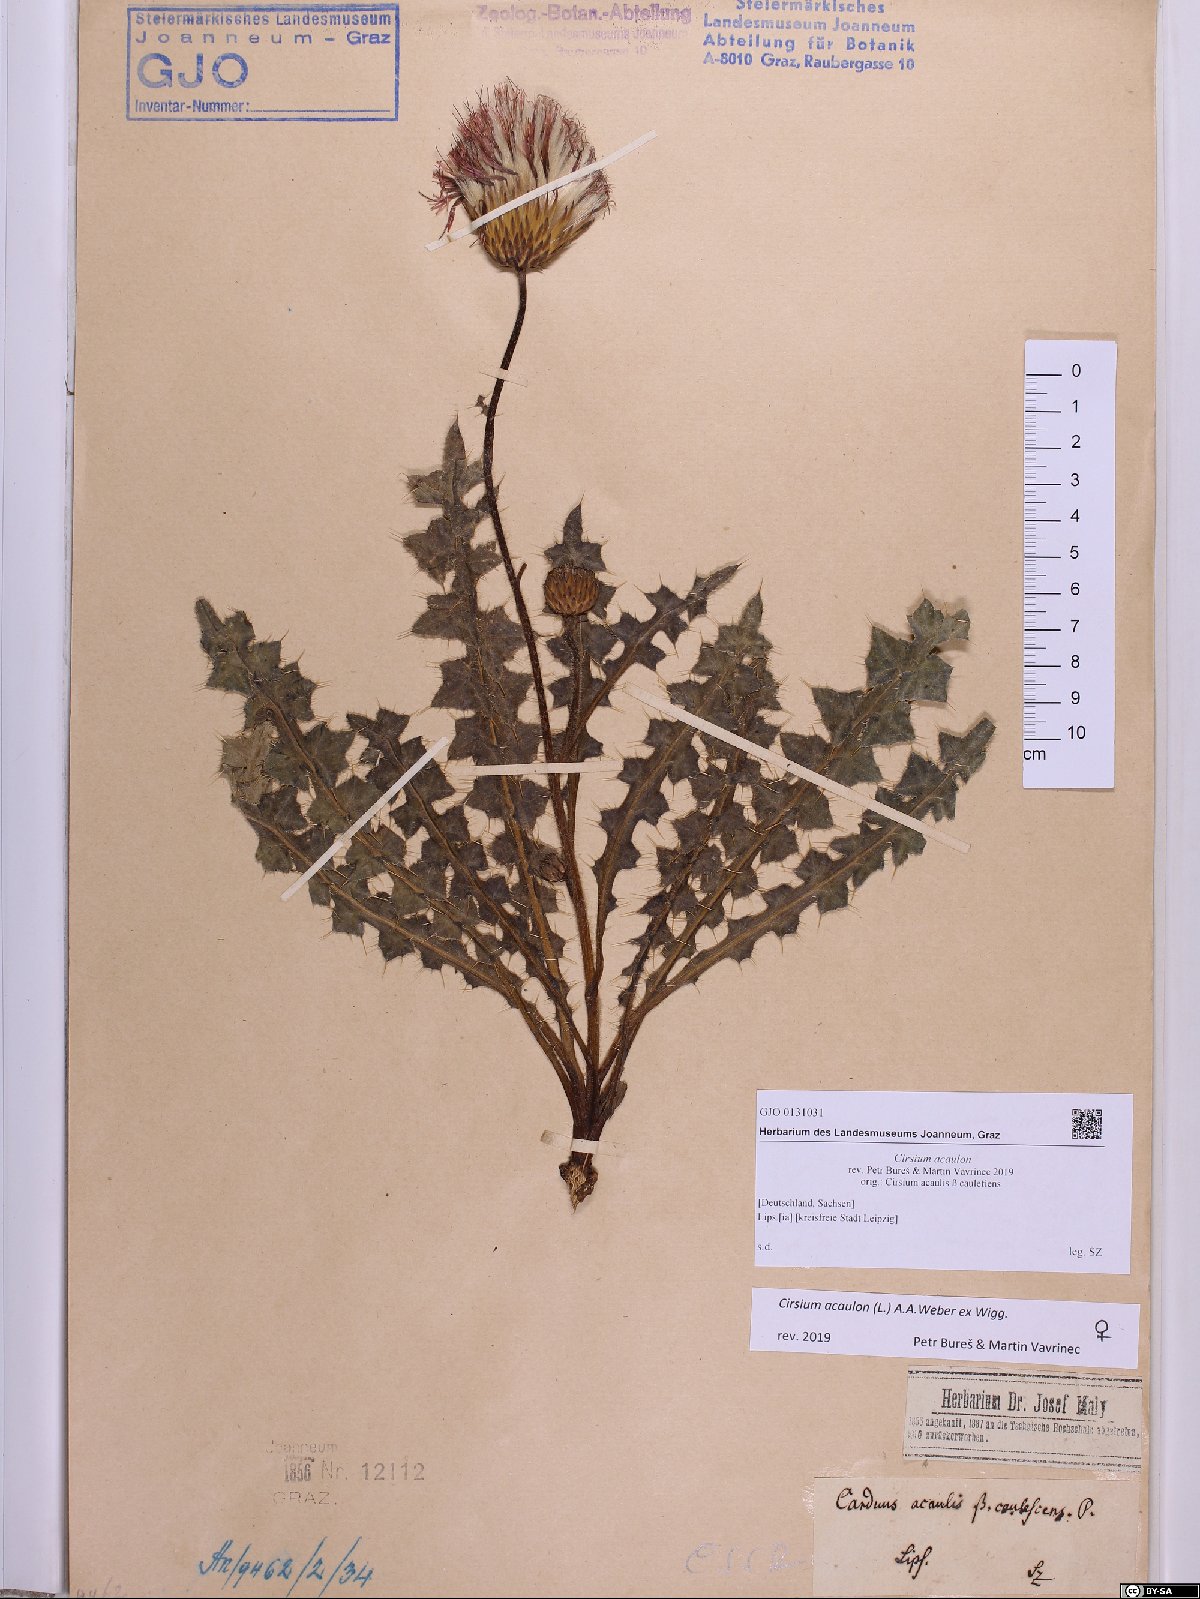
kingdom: Plantae
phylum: Tracheophyta
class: Magnoliopsida
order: Asterales
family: Asteraceae
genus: Cirsium
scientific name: Cirsium acaulon
